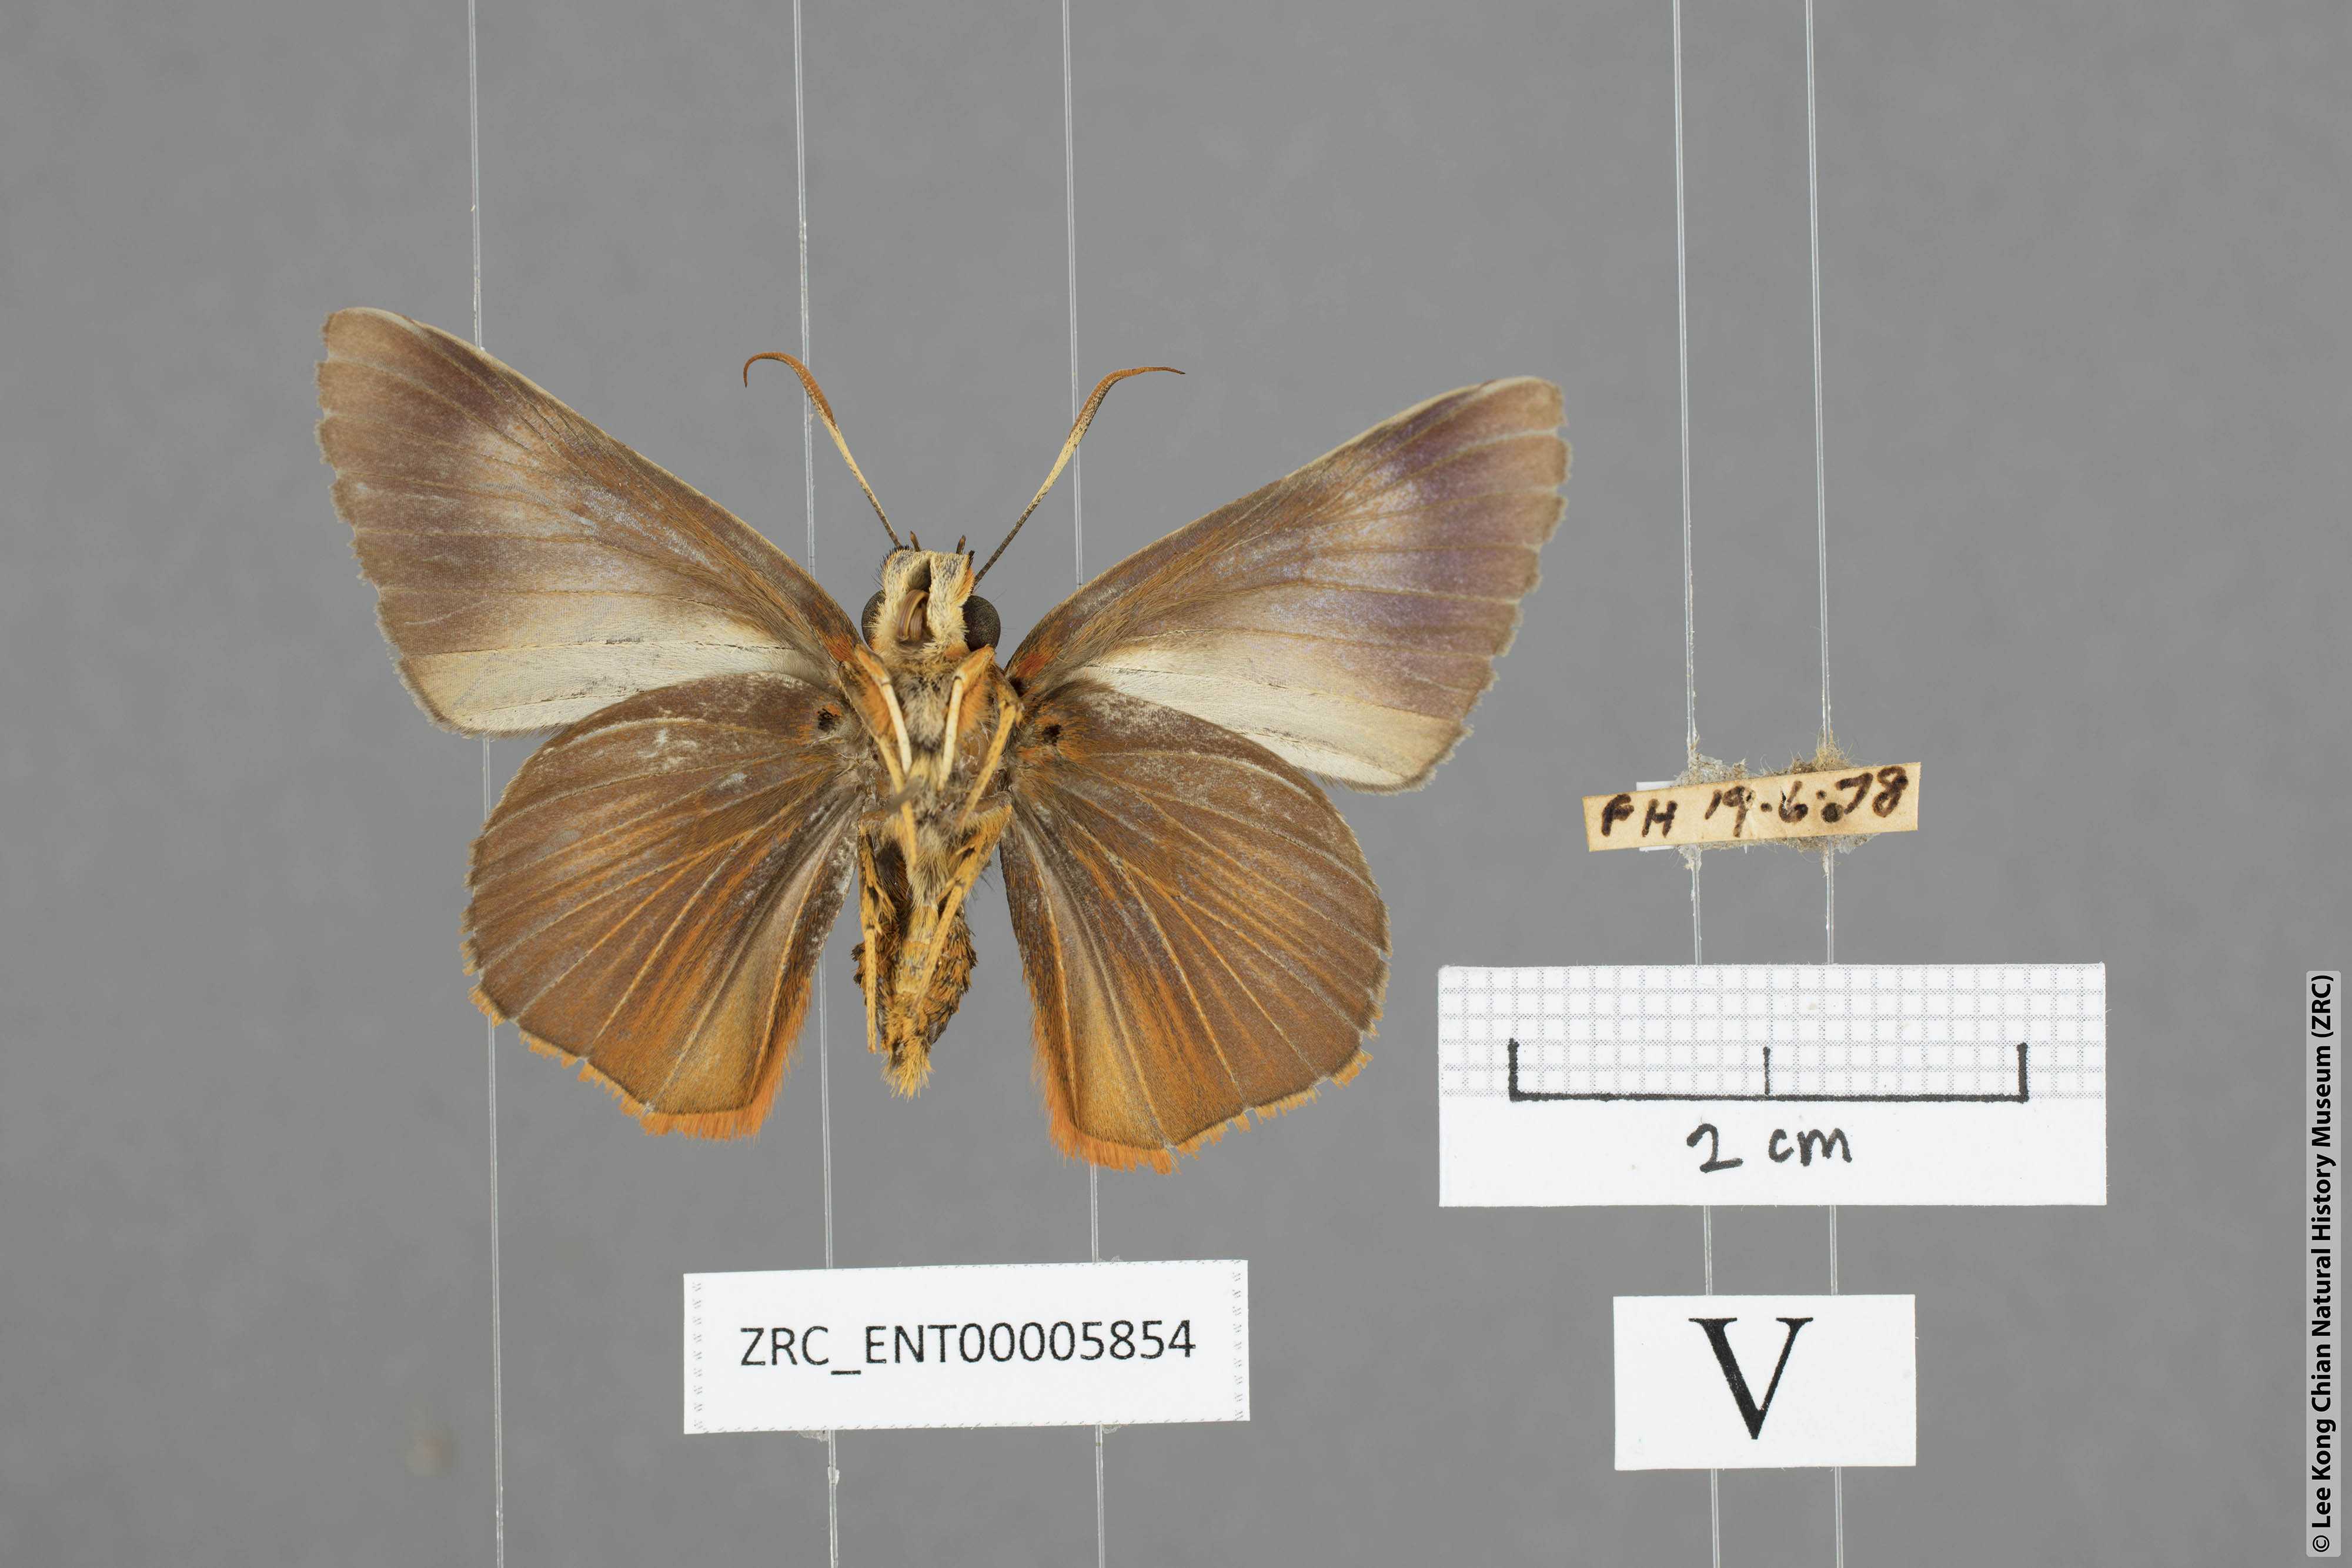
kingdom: Animalia
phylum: Arthropoda
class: Insecta
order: Hemiptera
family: Cicadellidae
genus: Burara
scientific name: Burara
